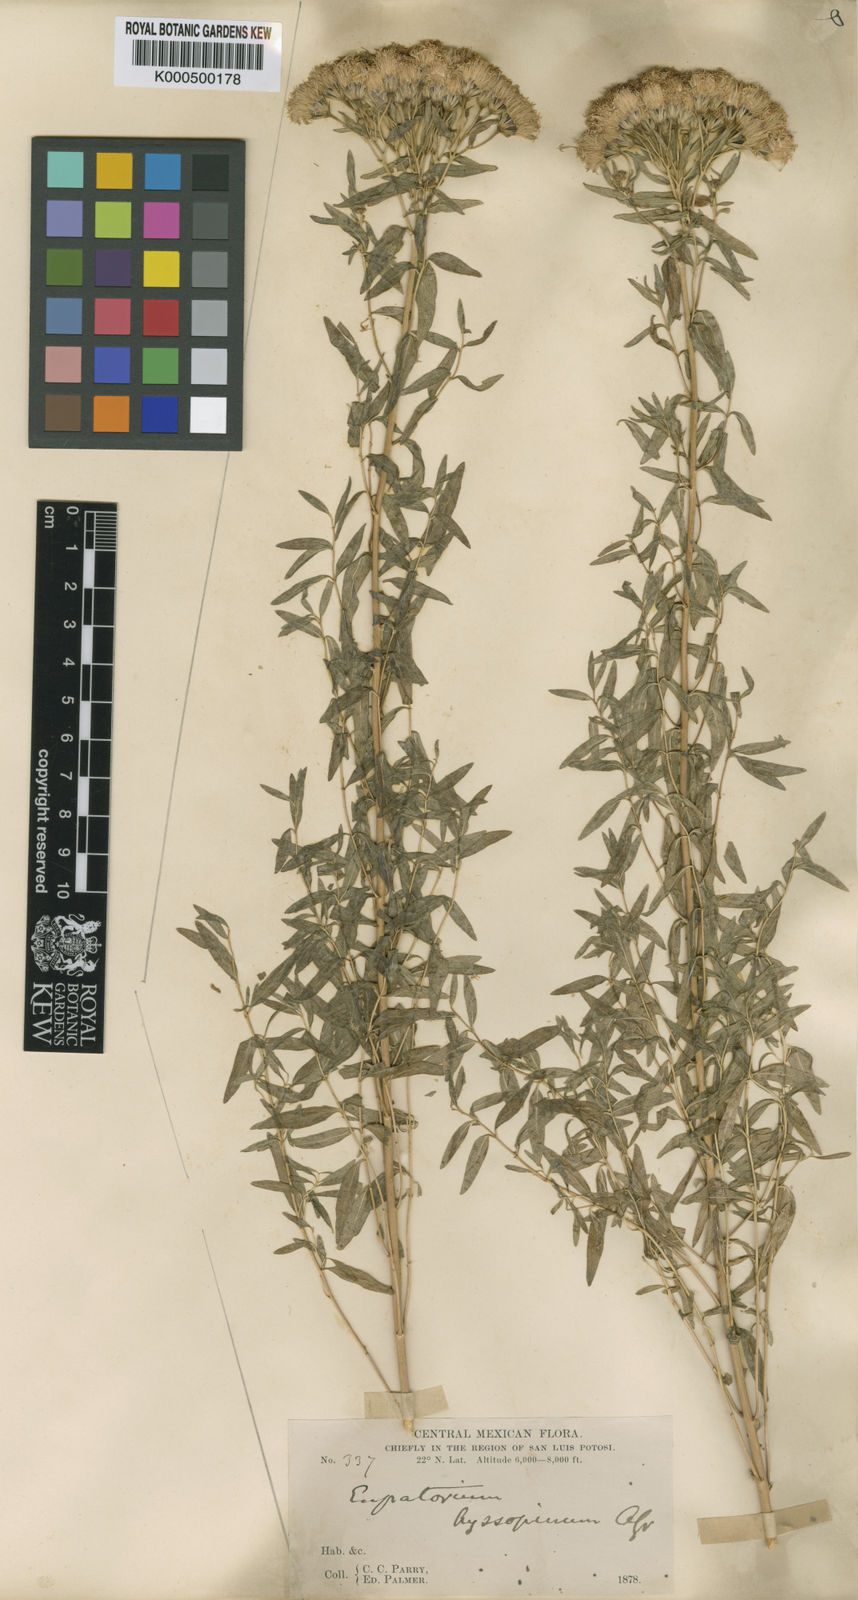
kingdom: Plantae
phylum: Tracheophyta
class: Magnoliopsida
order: Asterales
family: Asteraceae
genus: Ageratina
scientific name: Ageratina hyssopina
